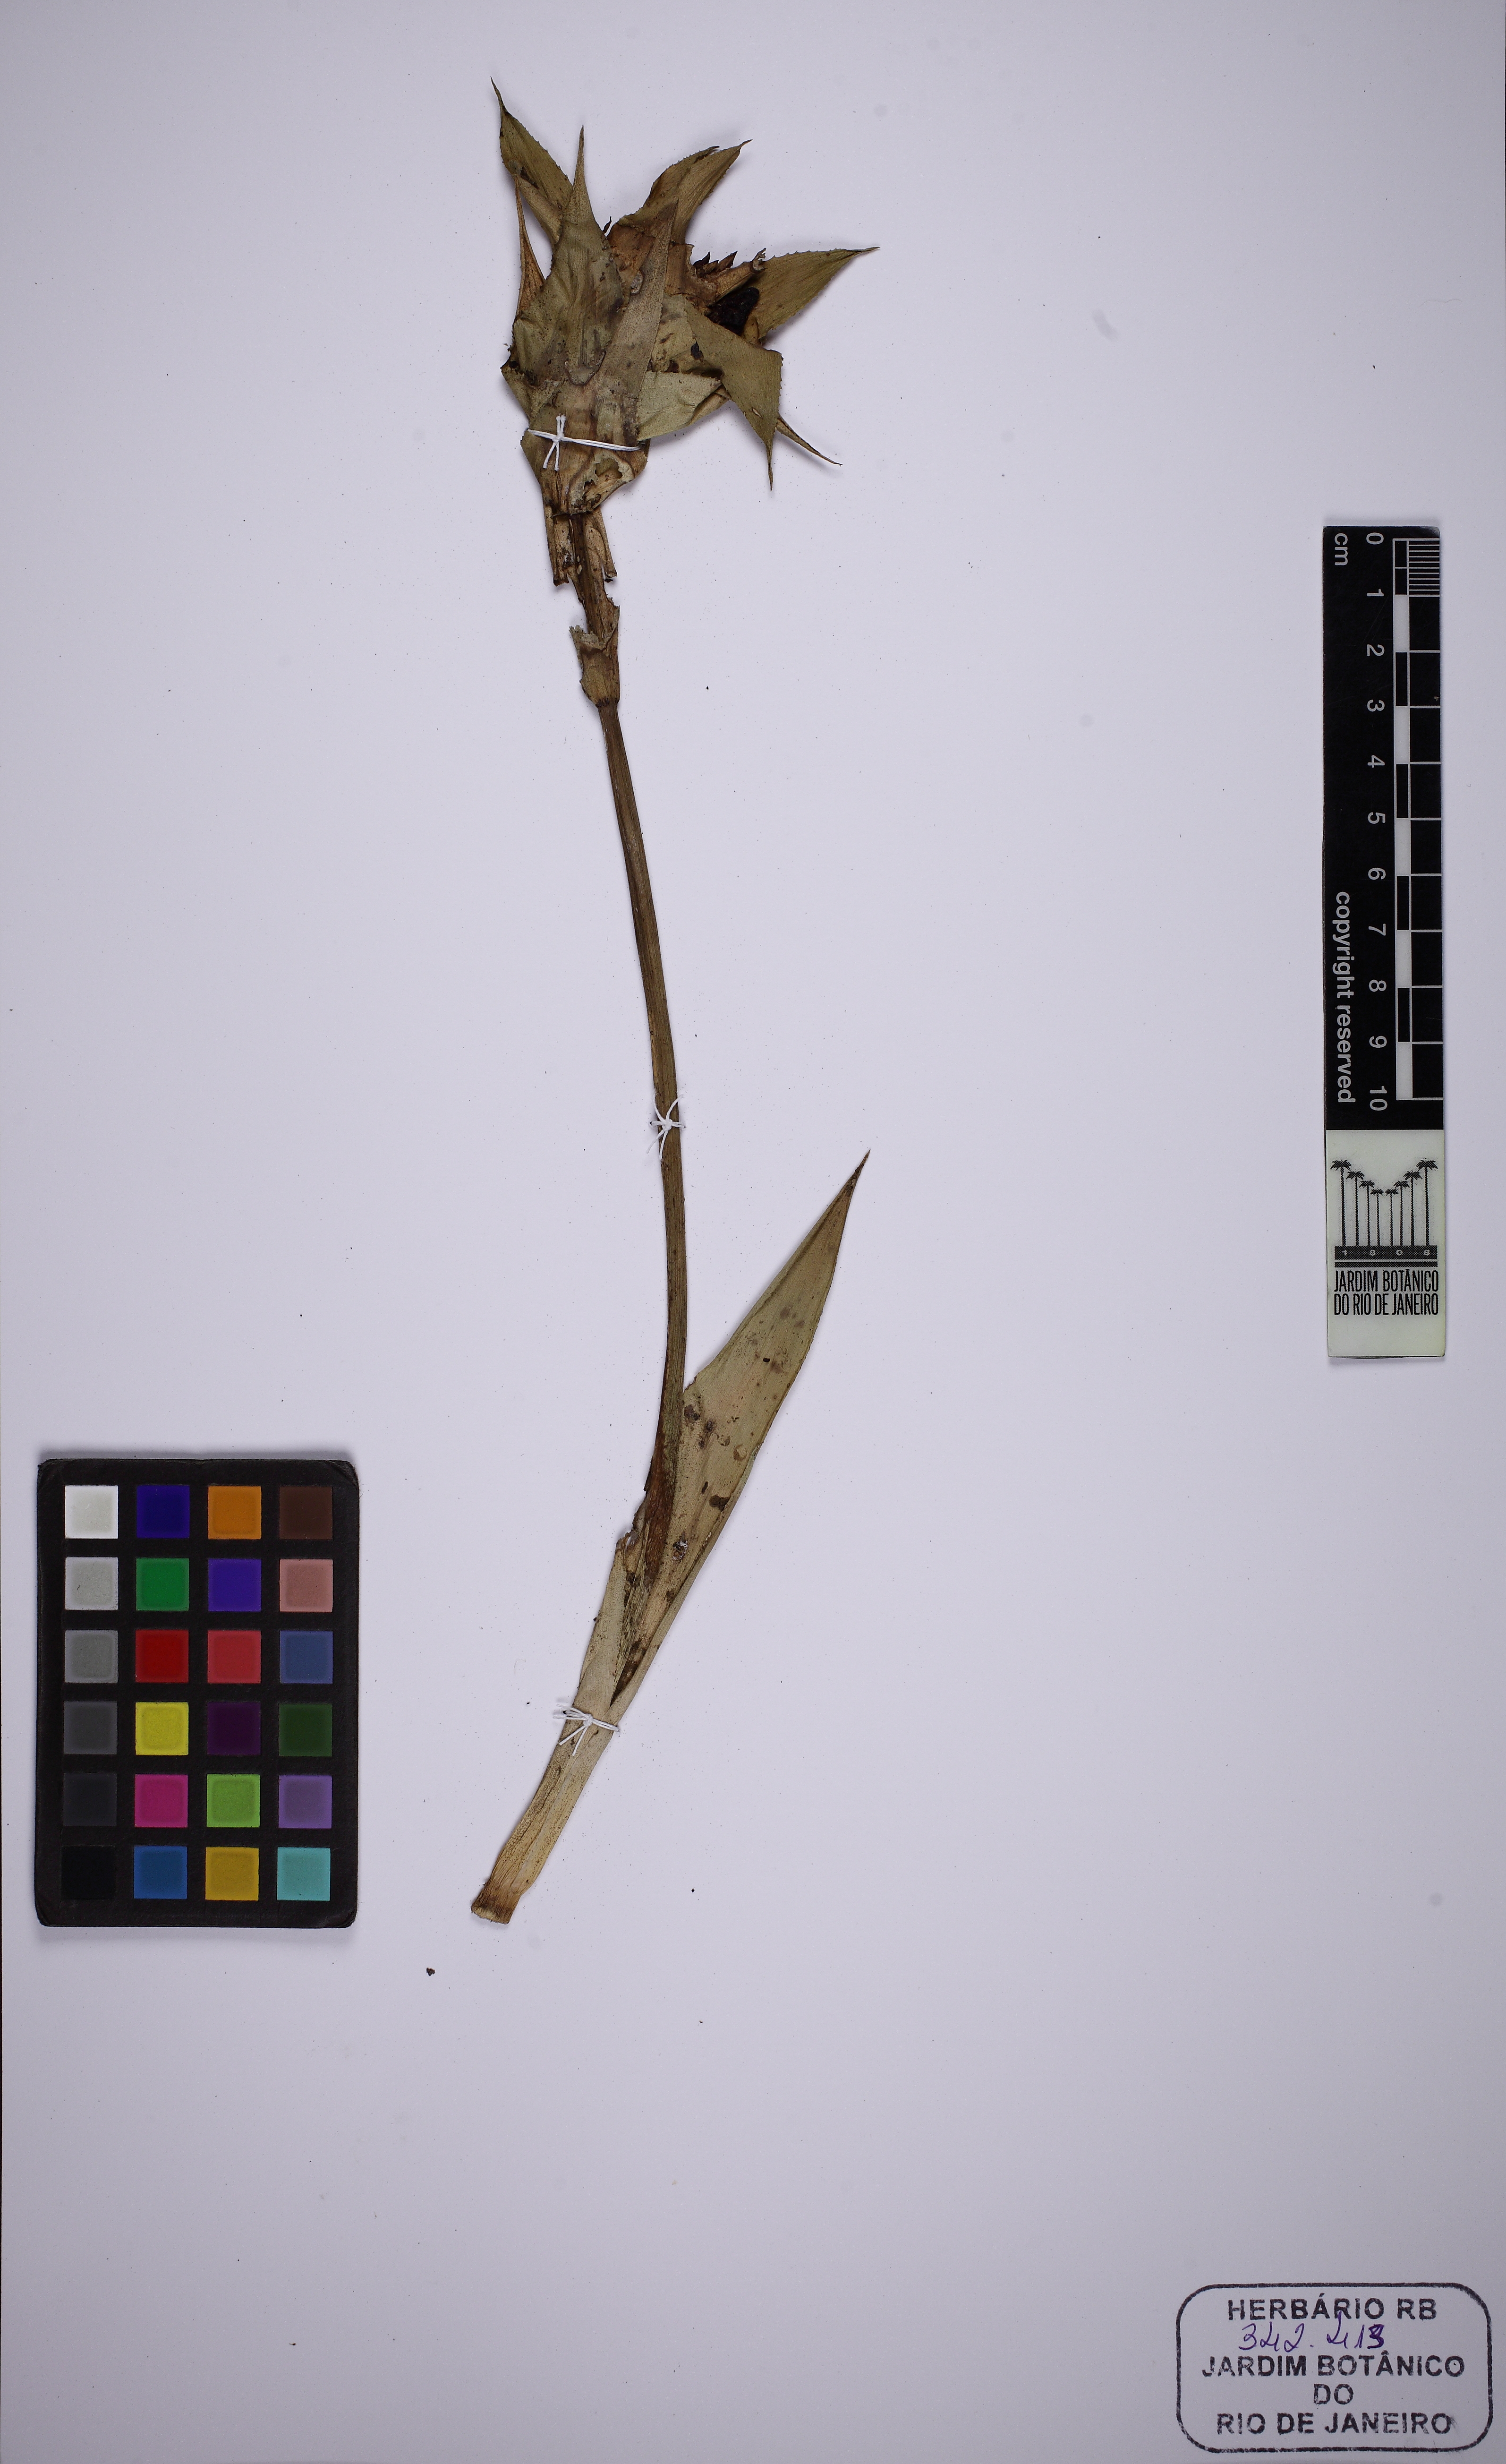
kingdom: Plantae
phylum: Tracheophyta
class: Liliopsida
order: Poales
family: Bromeliaceae
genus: Canistropsis
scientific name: Canistropsis billbergioides
